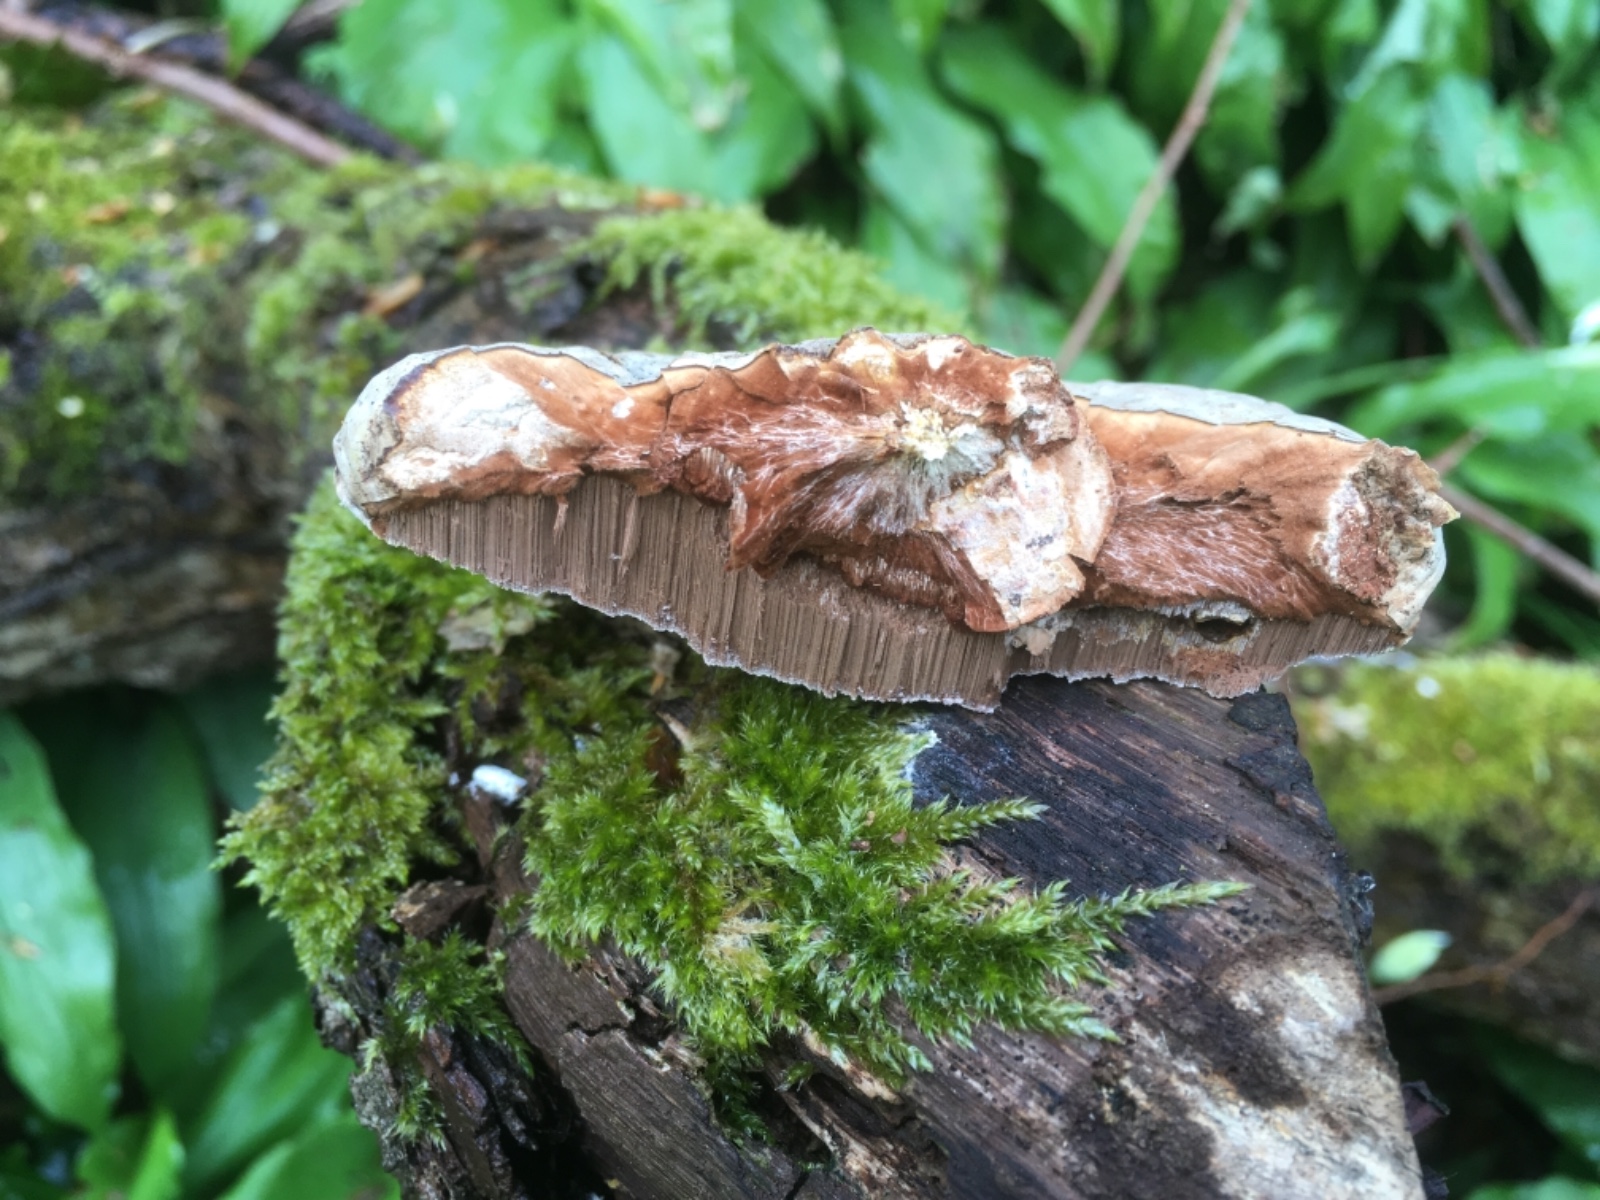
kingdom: Fungi
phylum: Basidiomycota
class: Agaricomycetes
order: Polyporales
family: Polyporaceae
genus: Ganoderma
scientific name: Ganoderma applanatum
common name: flad lakporesvamp
